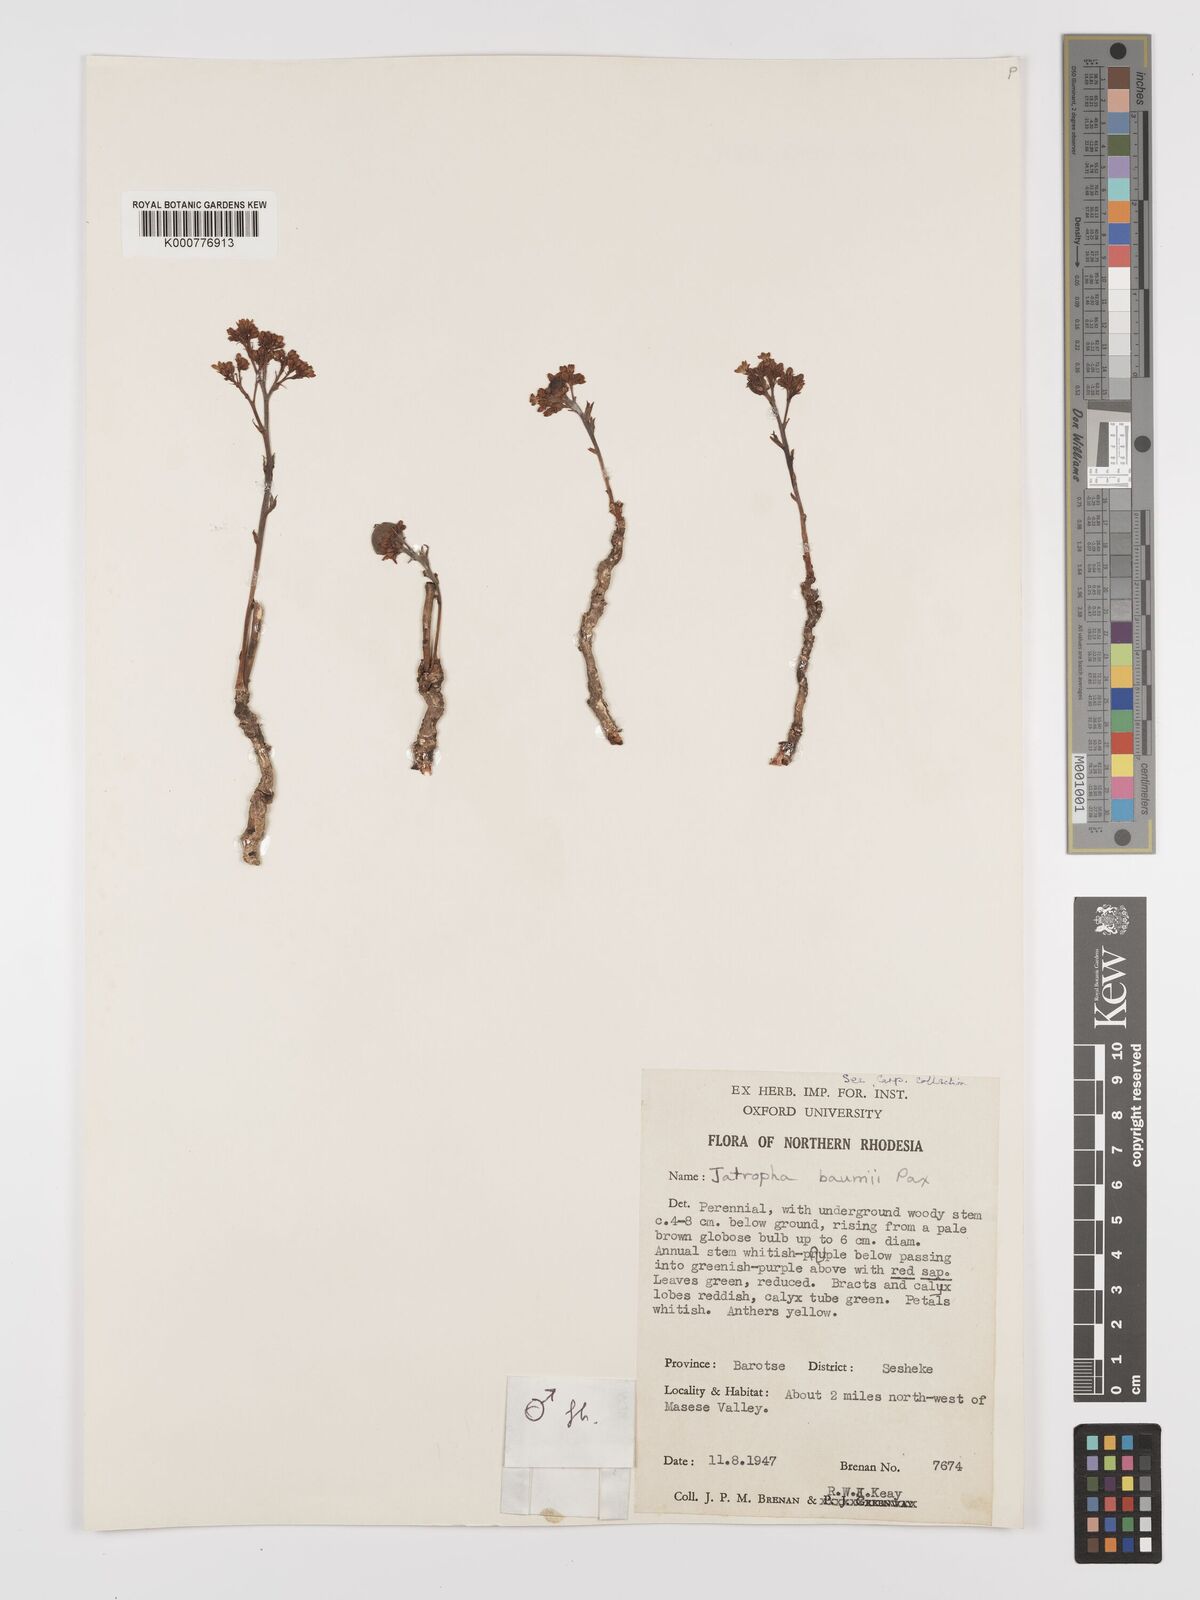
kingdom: Plantae
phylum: Tracheophyta
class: Magnoliopsida
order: Malpighiales
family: Euphorbiaceae
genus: Jatropha
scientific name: Jatropha baumii
